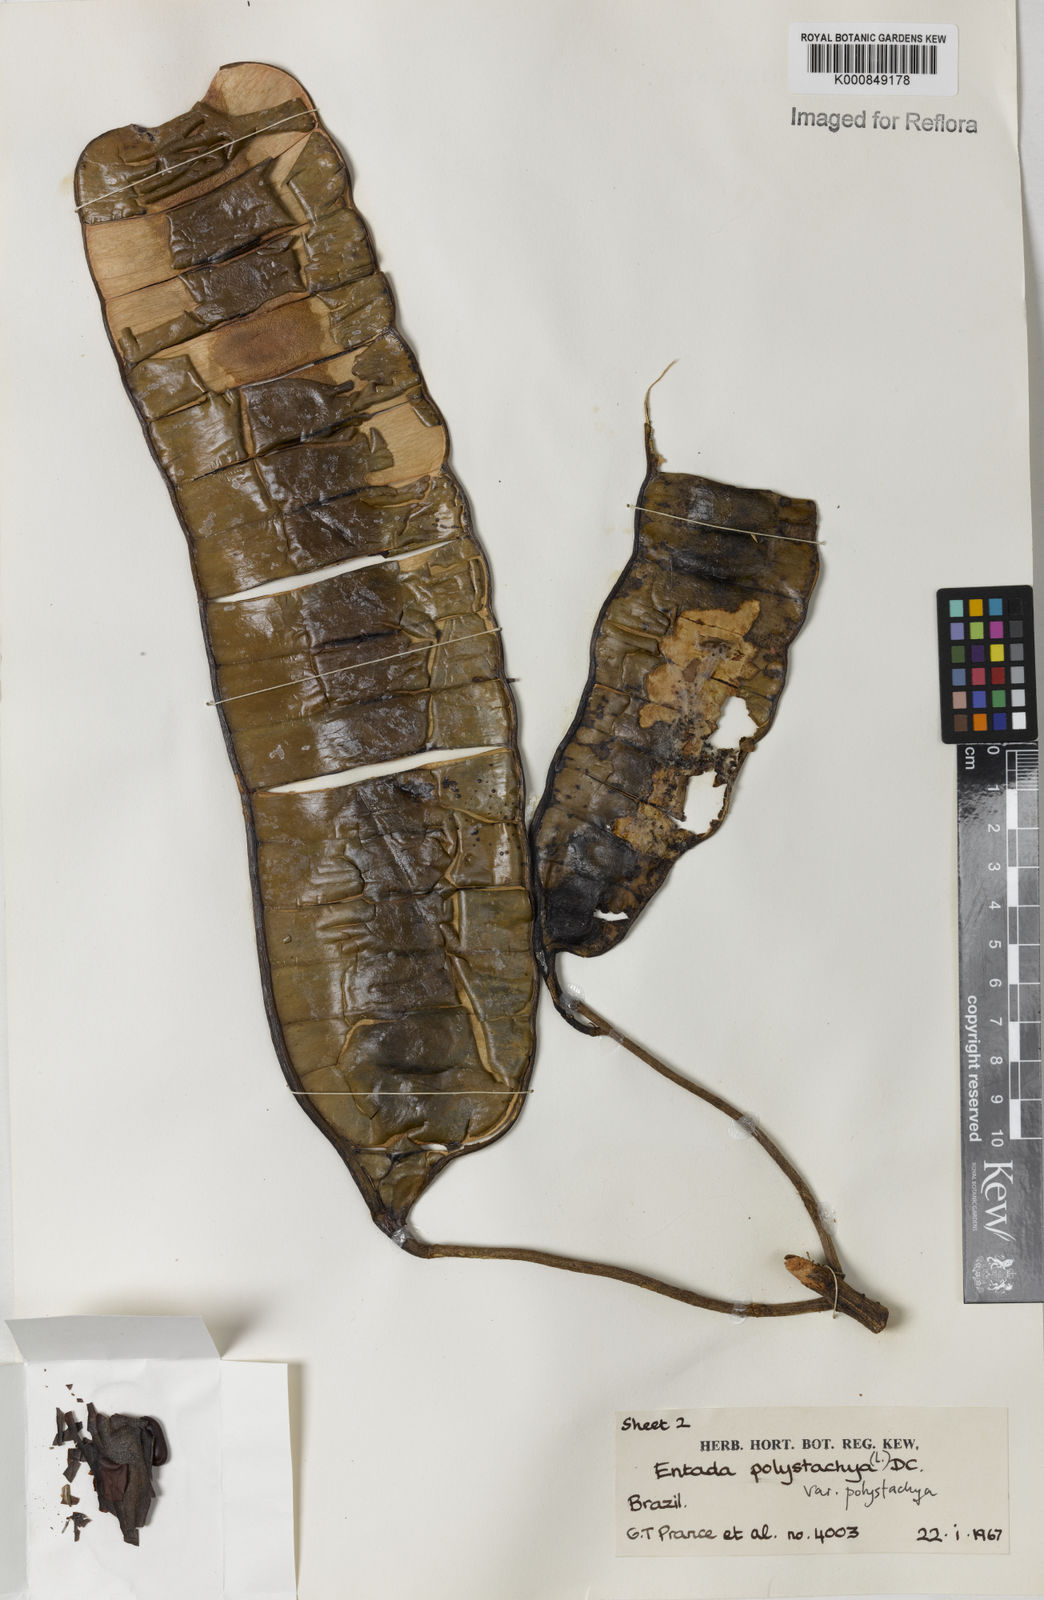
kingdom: Plantae
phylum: Tracheophyta
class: Magnoliopsida
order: Fabales
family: Fabaceae
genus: Entada
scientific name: Entada polystachya
